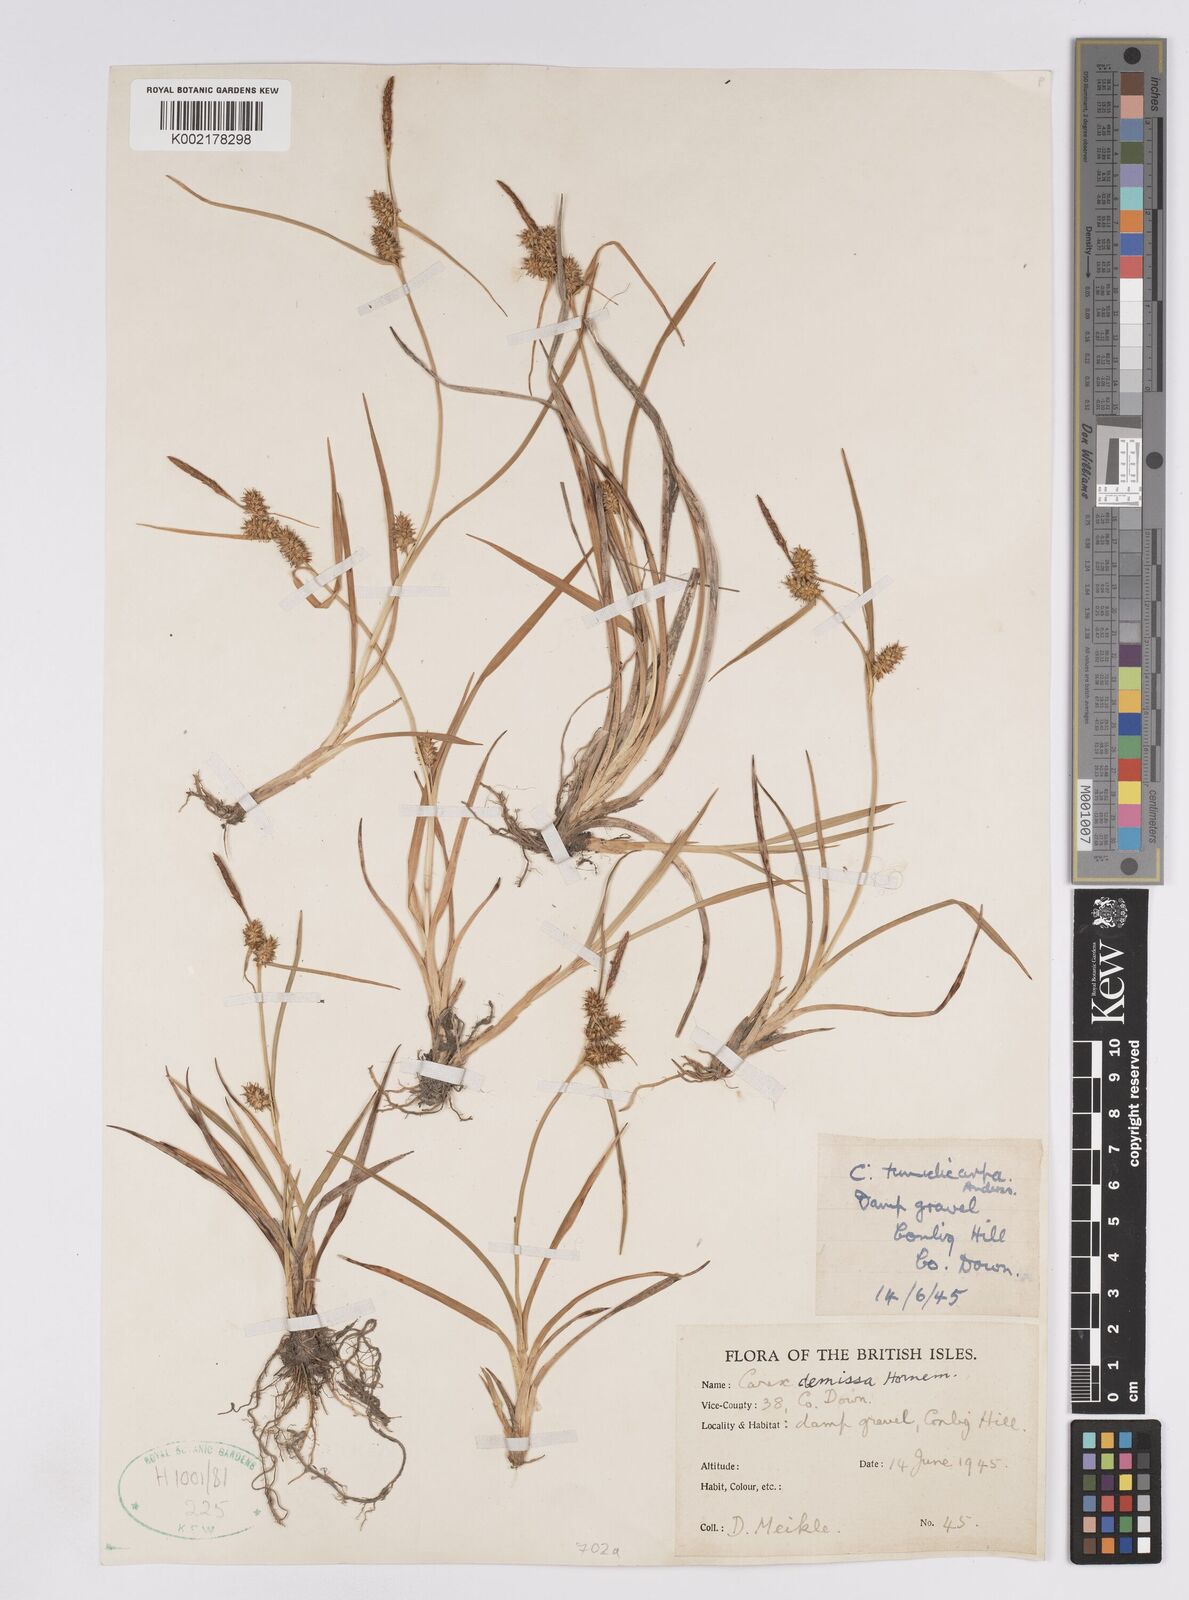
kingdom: Plantae
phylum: Tracheophyta
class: Liliopsida
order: Poales
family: Cyperaceae
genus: Carex
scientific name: Carex demissa
